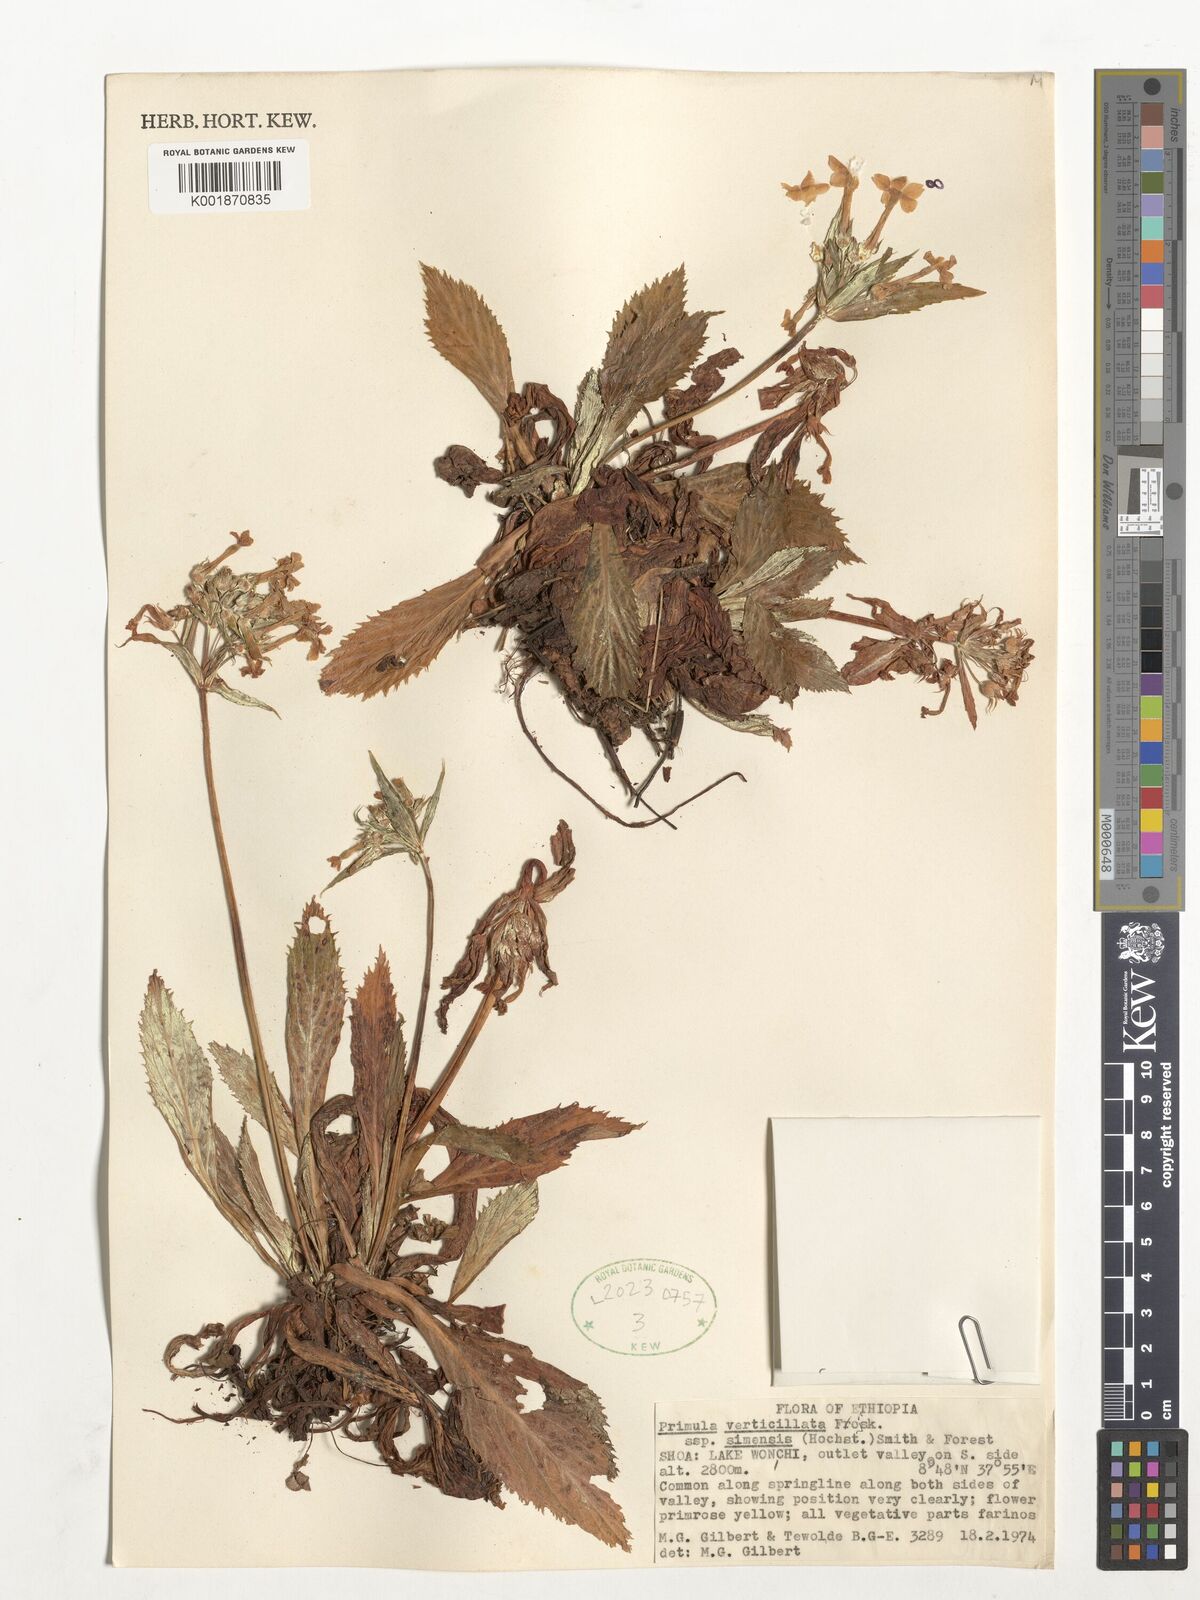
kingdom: Plantae
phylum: Tracheophyta
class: Magnoliopsida
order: Ericales
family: Primulaceae
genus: Evotrochis
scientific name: Evotrochis simensis
